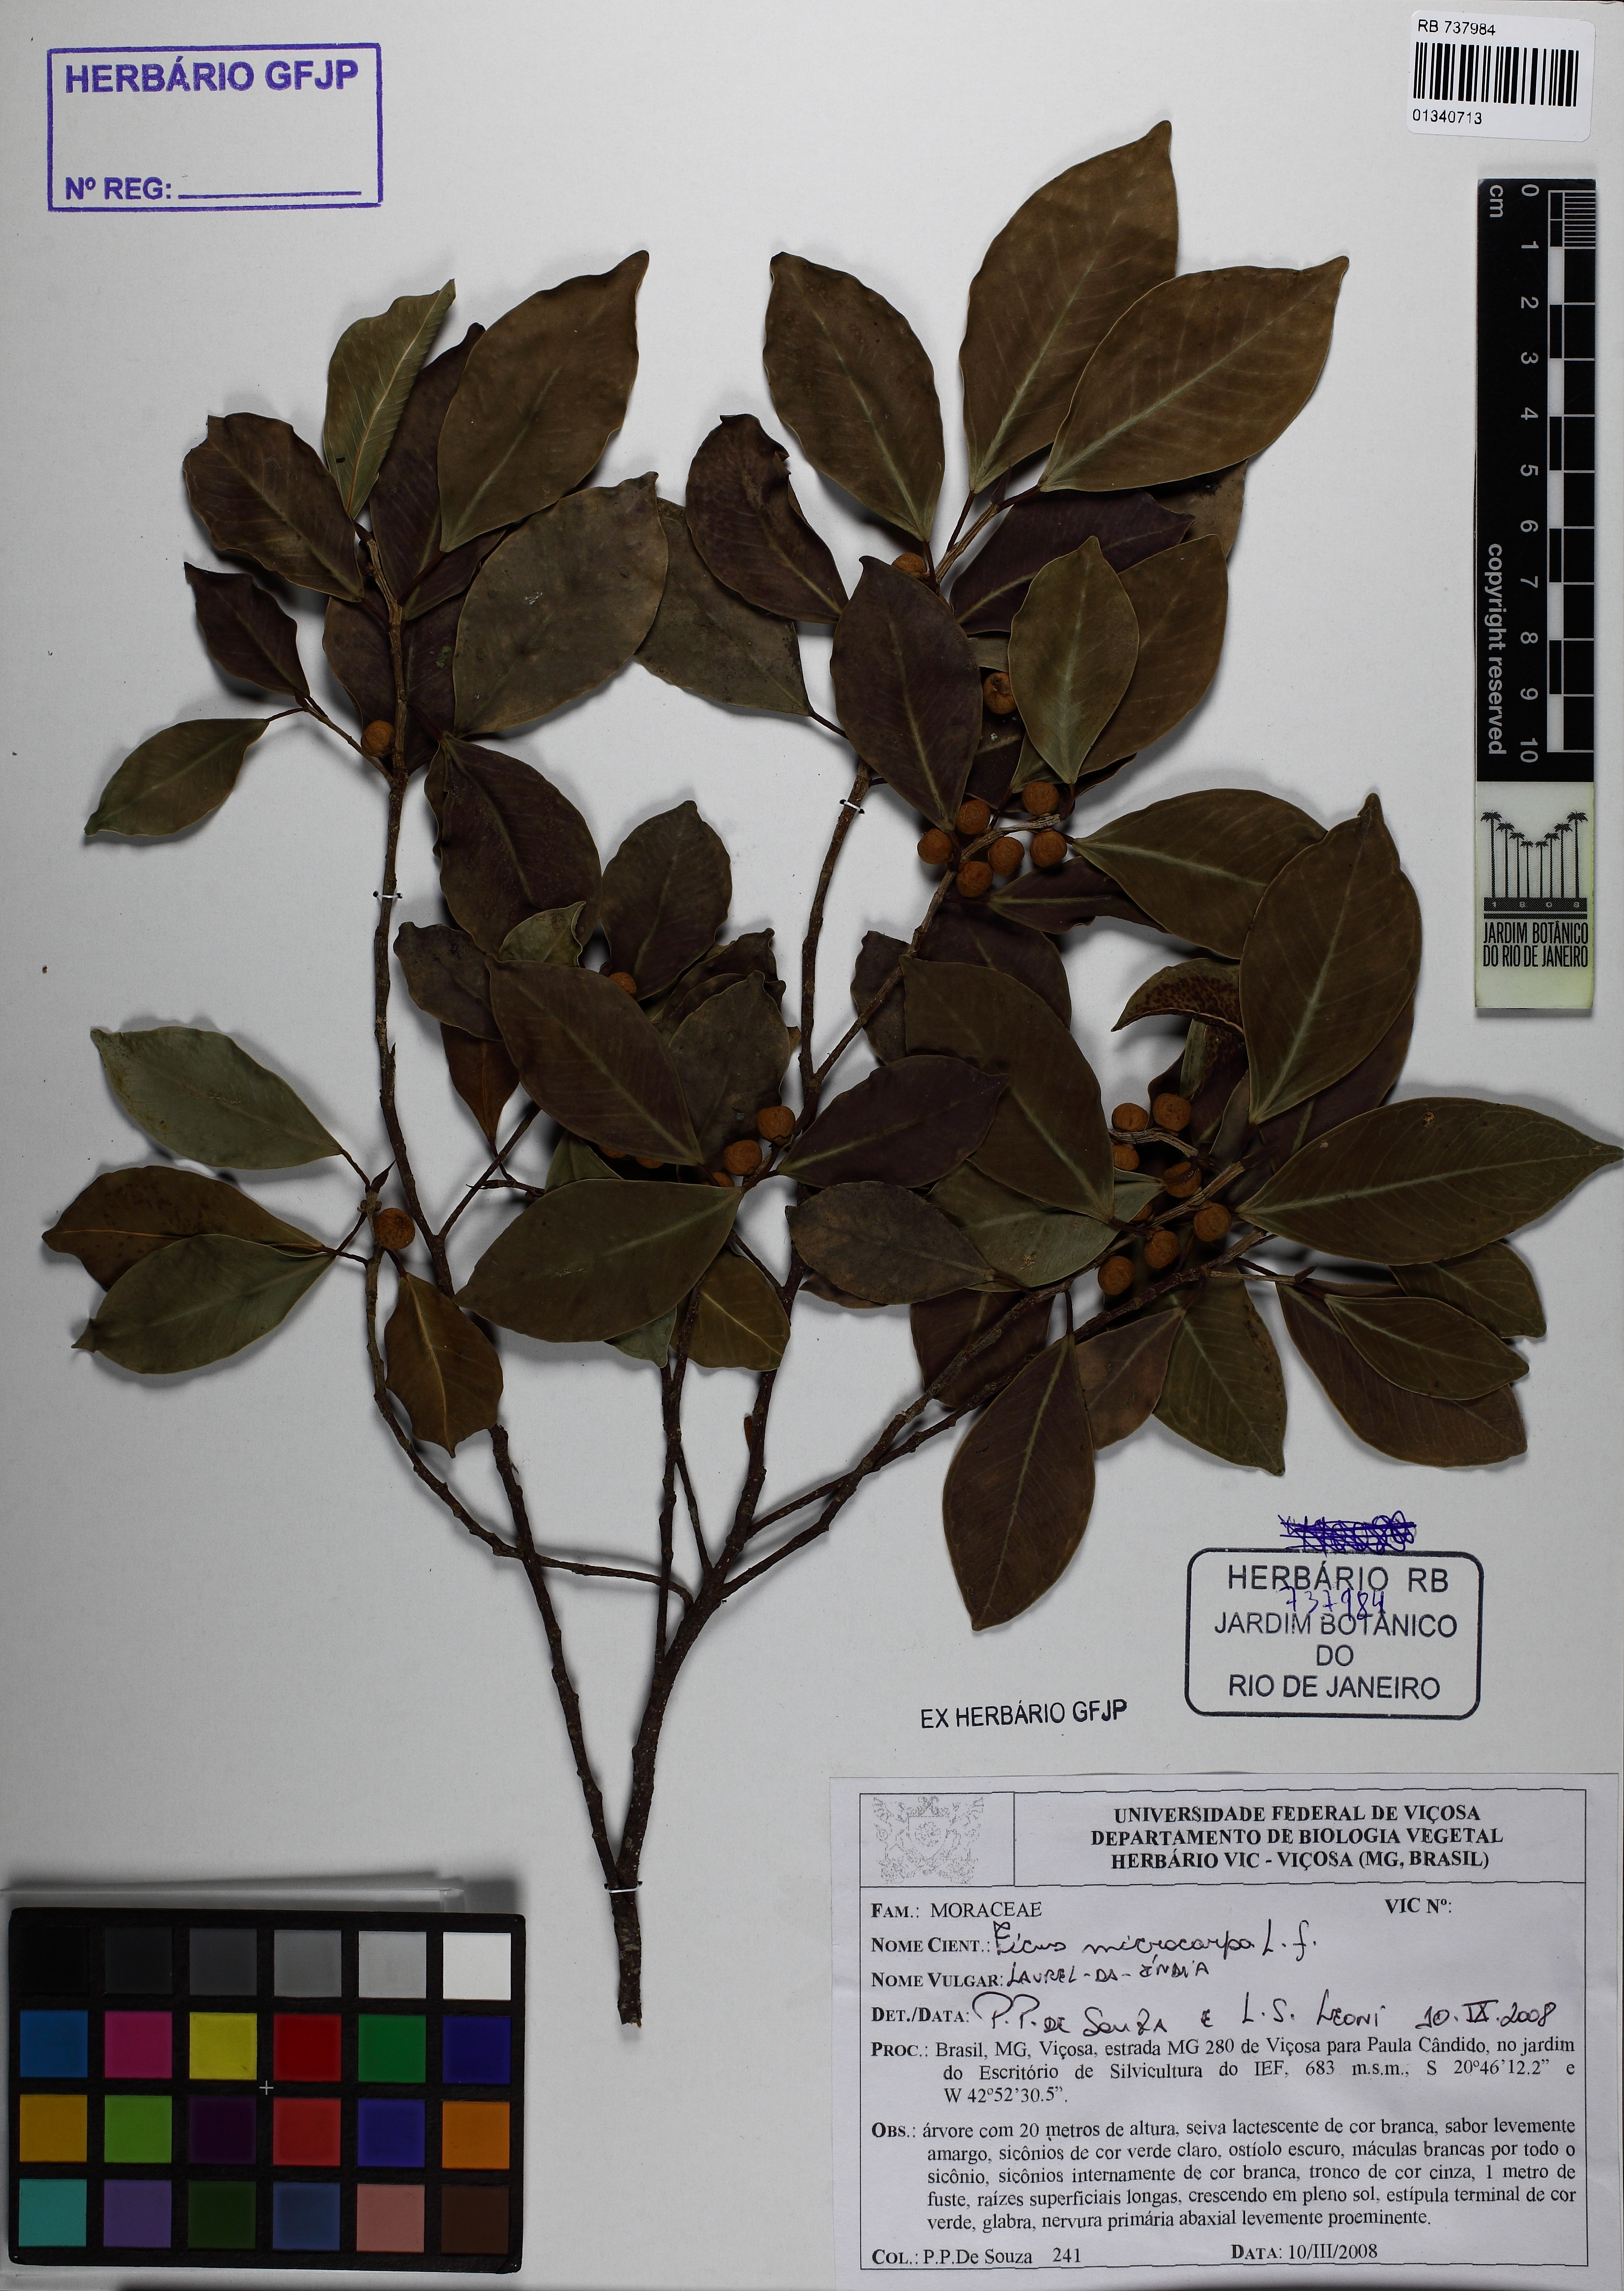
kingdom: Plantae
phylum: Tracheophyta
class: Magnoliopsida
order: Rosales
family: Moraceae
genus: Ficus
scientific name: Ficus microcarpa
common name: Chinese banyan
